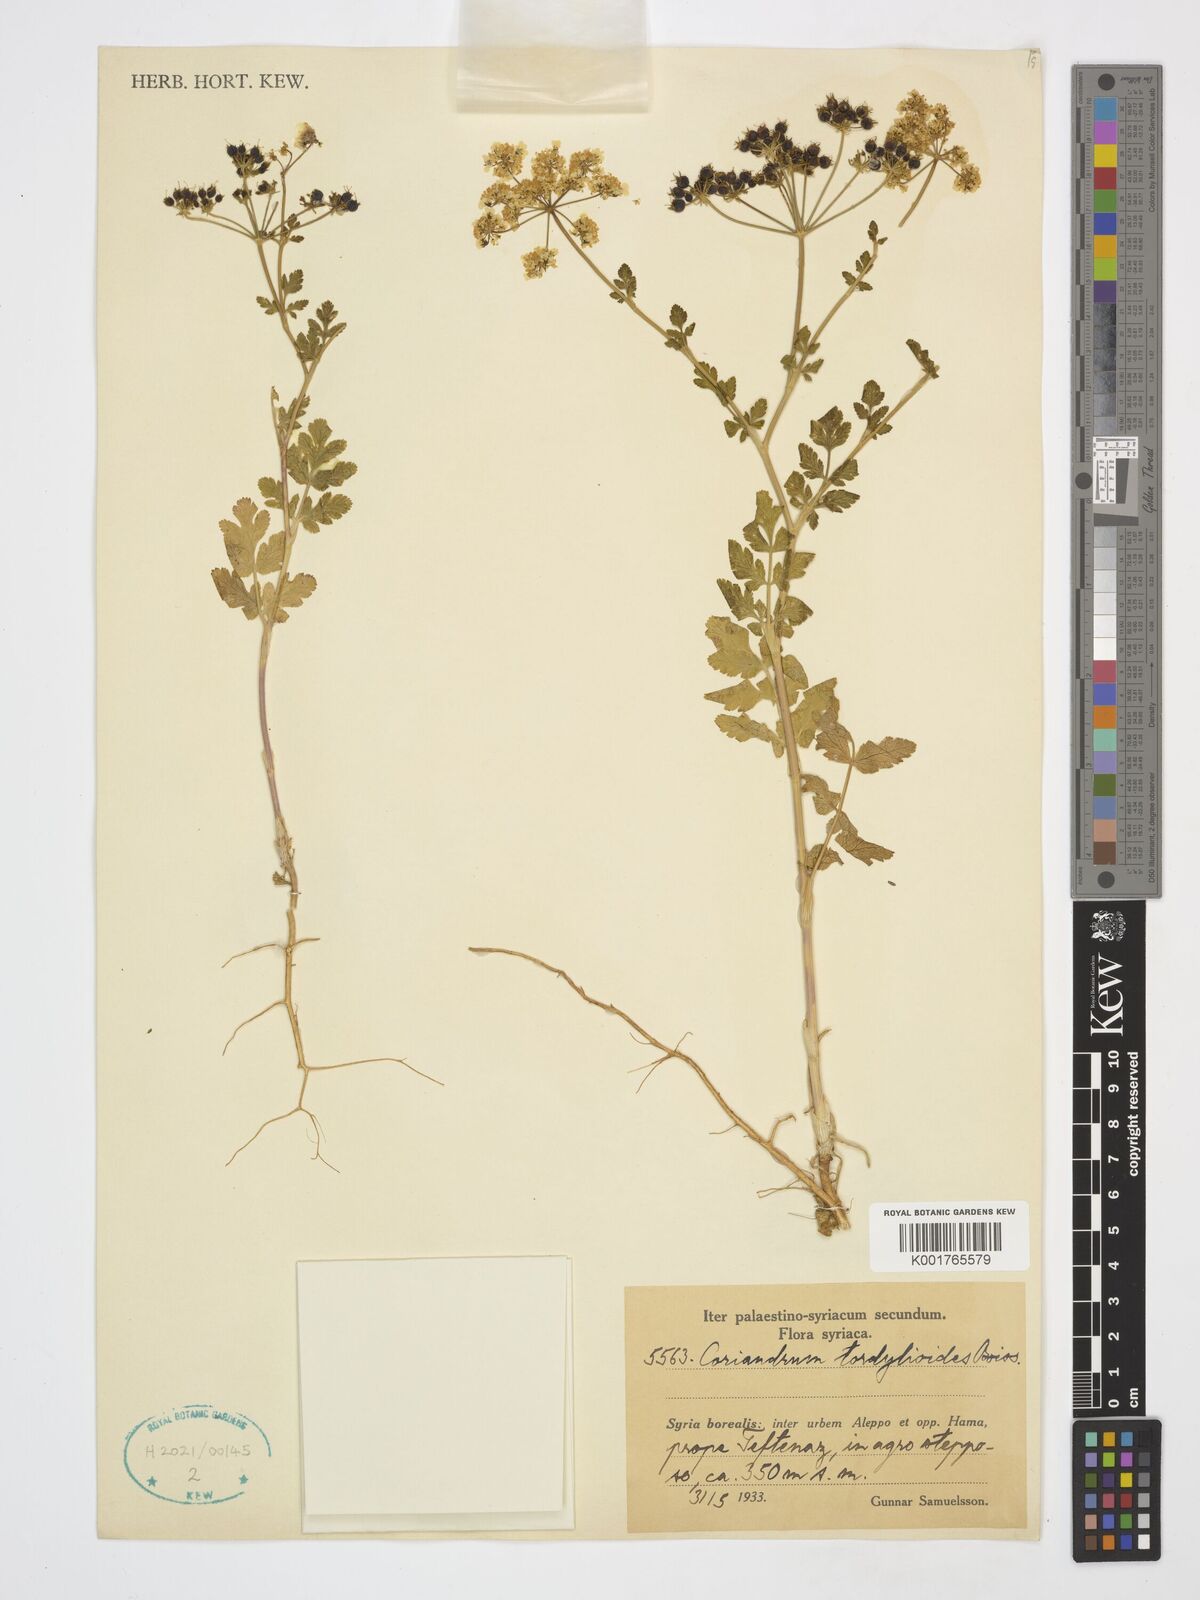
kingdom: Plantae
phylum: Tracheophyta
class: Magnoliopsida
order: Apiales
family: Apiaceae
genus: Coriandrum
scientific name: Coriandrum tordylium
